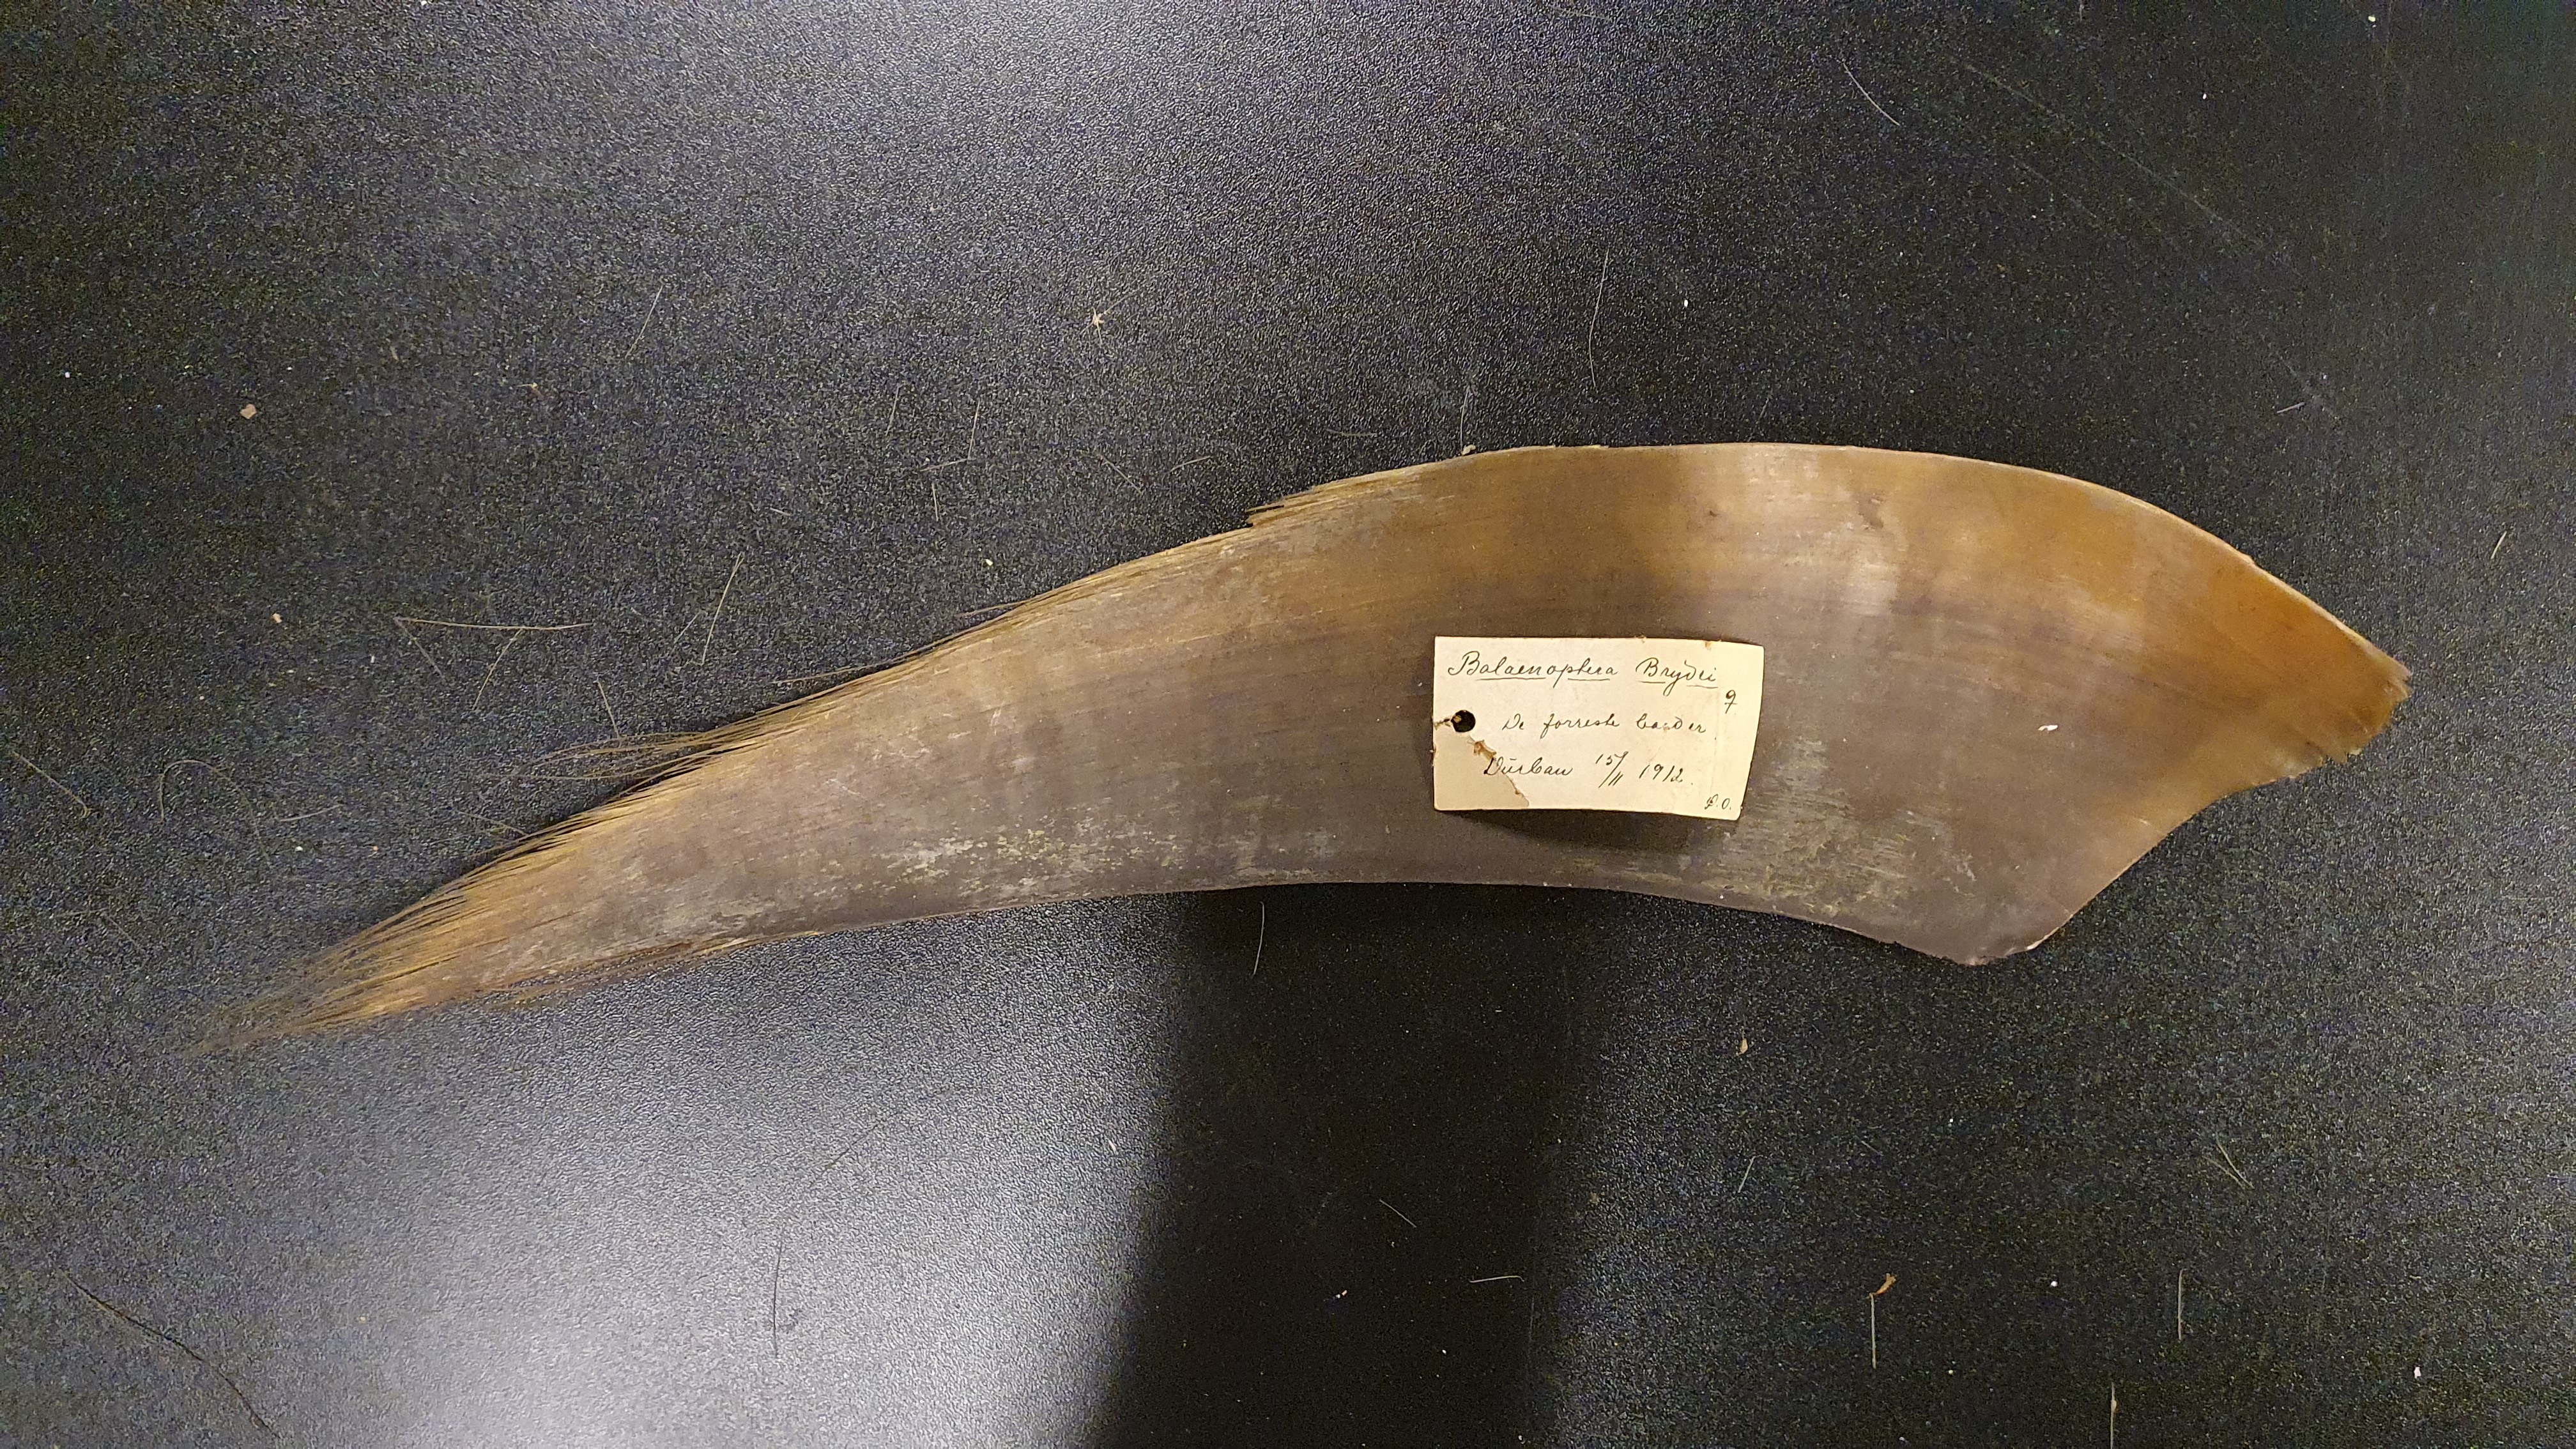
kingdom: Animalia
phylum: Chordata
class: Mammalia
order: Cetacea
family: Balaenopteridae
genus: Balaenoptera
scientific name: Balaenoptera edeni
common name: Bryde's whale
